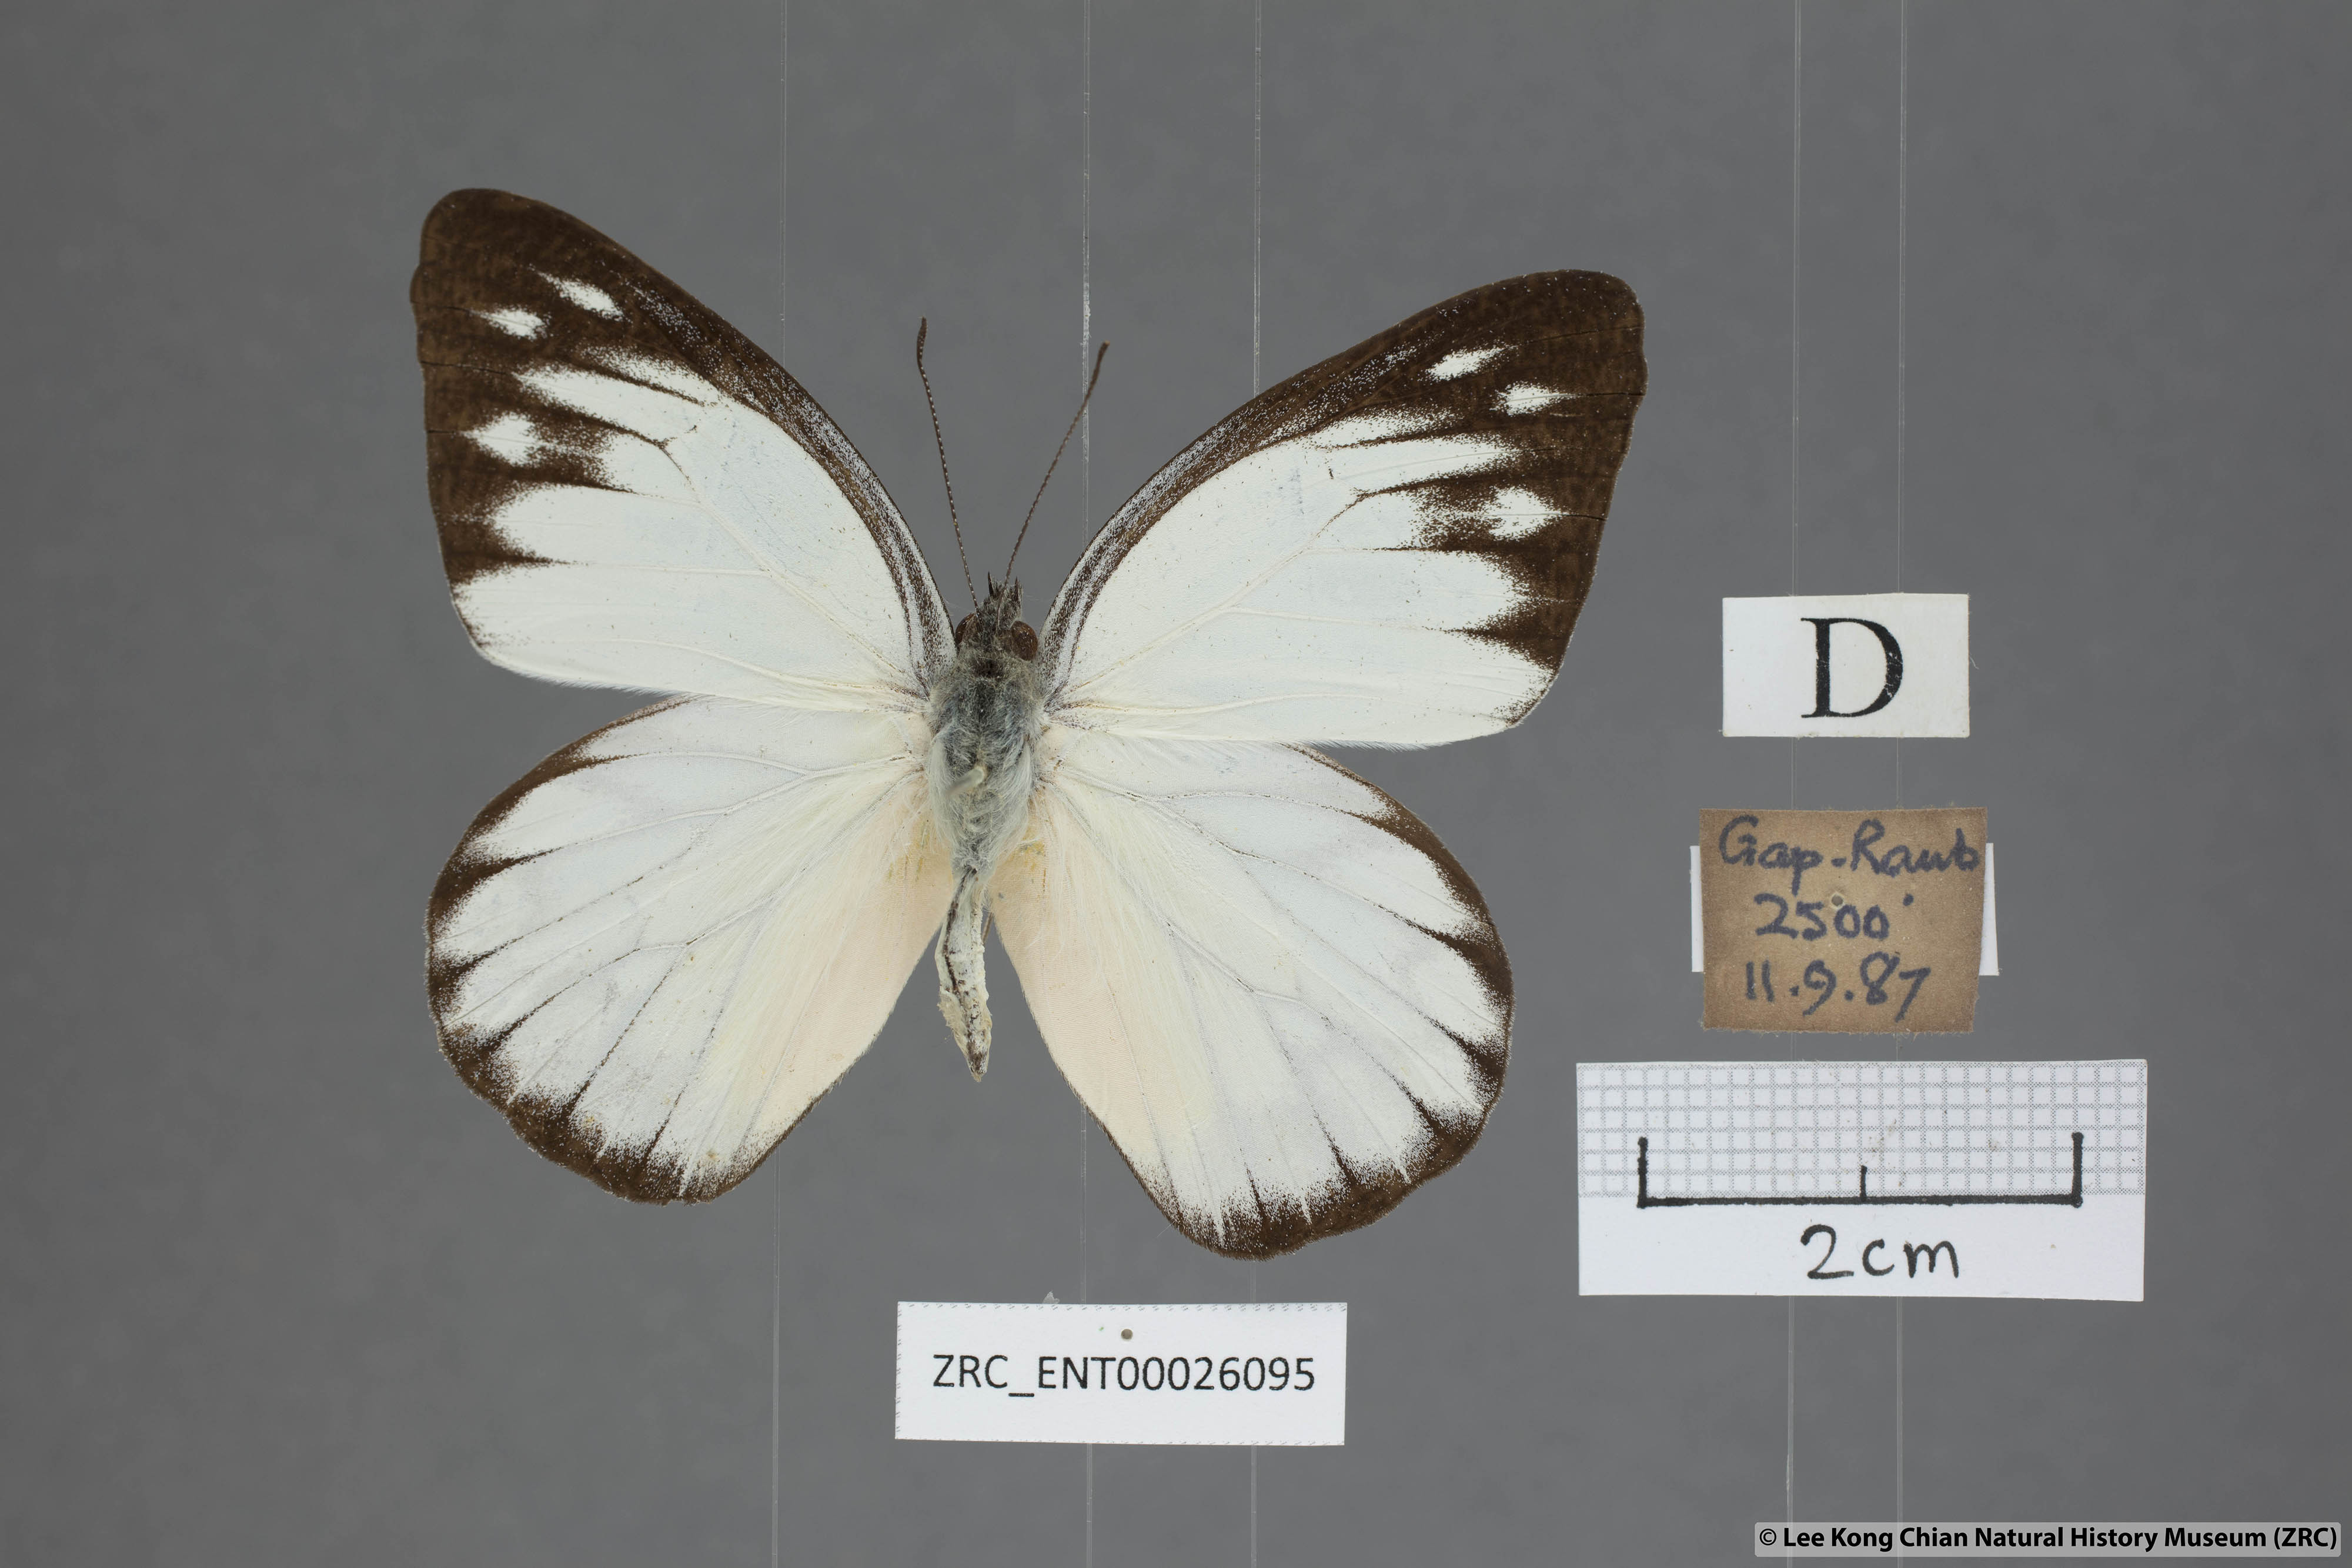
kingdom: Animalia
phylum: Arthropoda
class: Insecta
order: Lepidoptera
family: Pieridae
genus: Appias
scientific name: Appias cardena
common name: Yellow puffin
